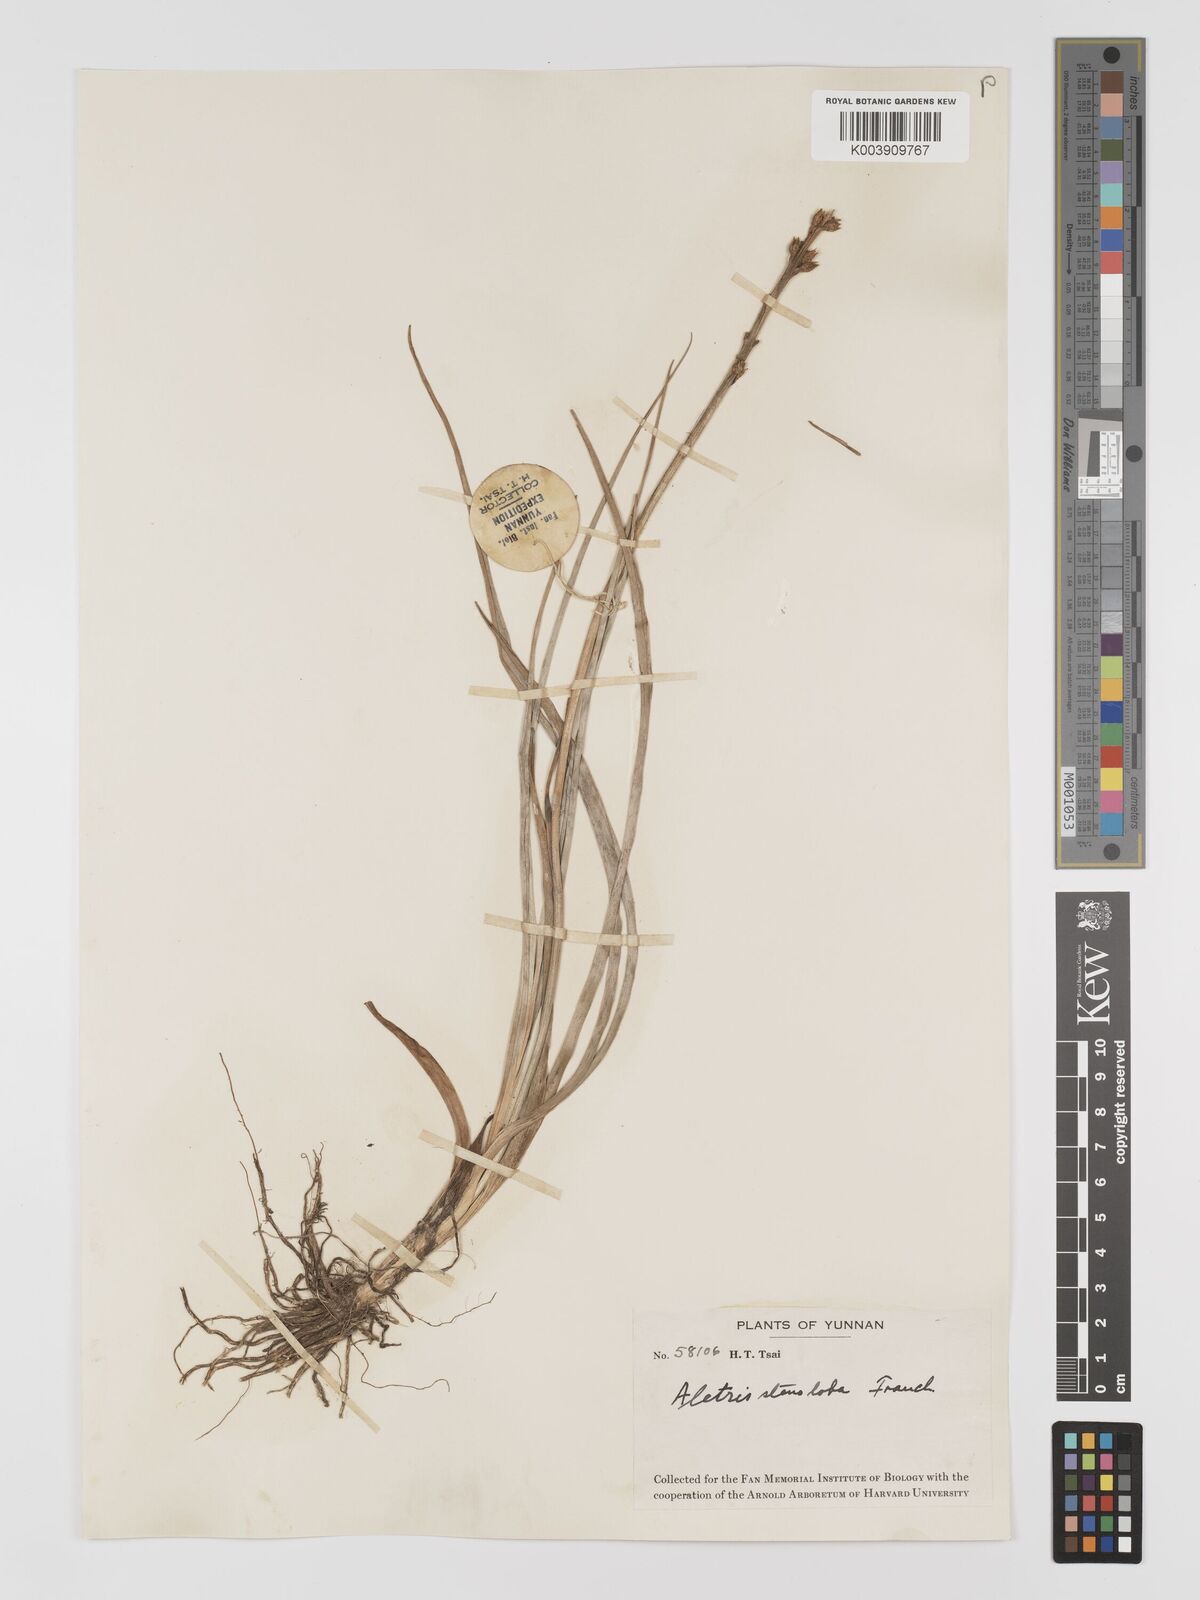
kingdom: Plantae
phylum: Tracheophyta
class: Liliopsida
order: Dioscoreales
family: Nartheciaceae
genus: Aletris
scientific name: Aletris stenoloba
